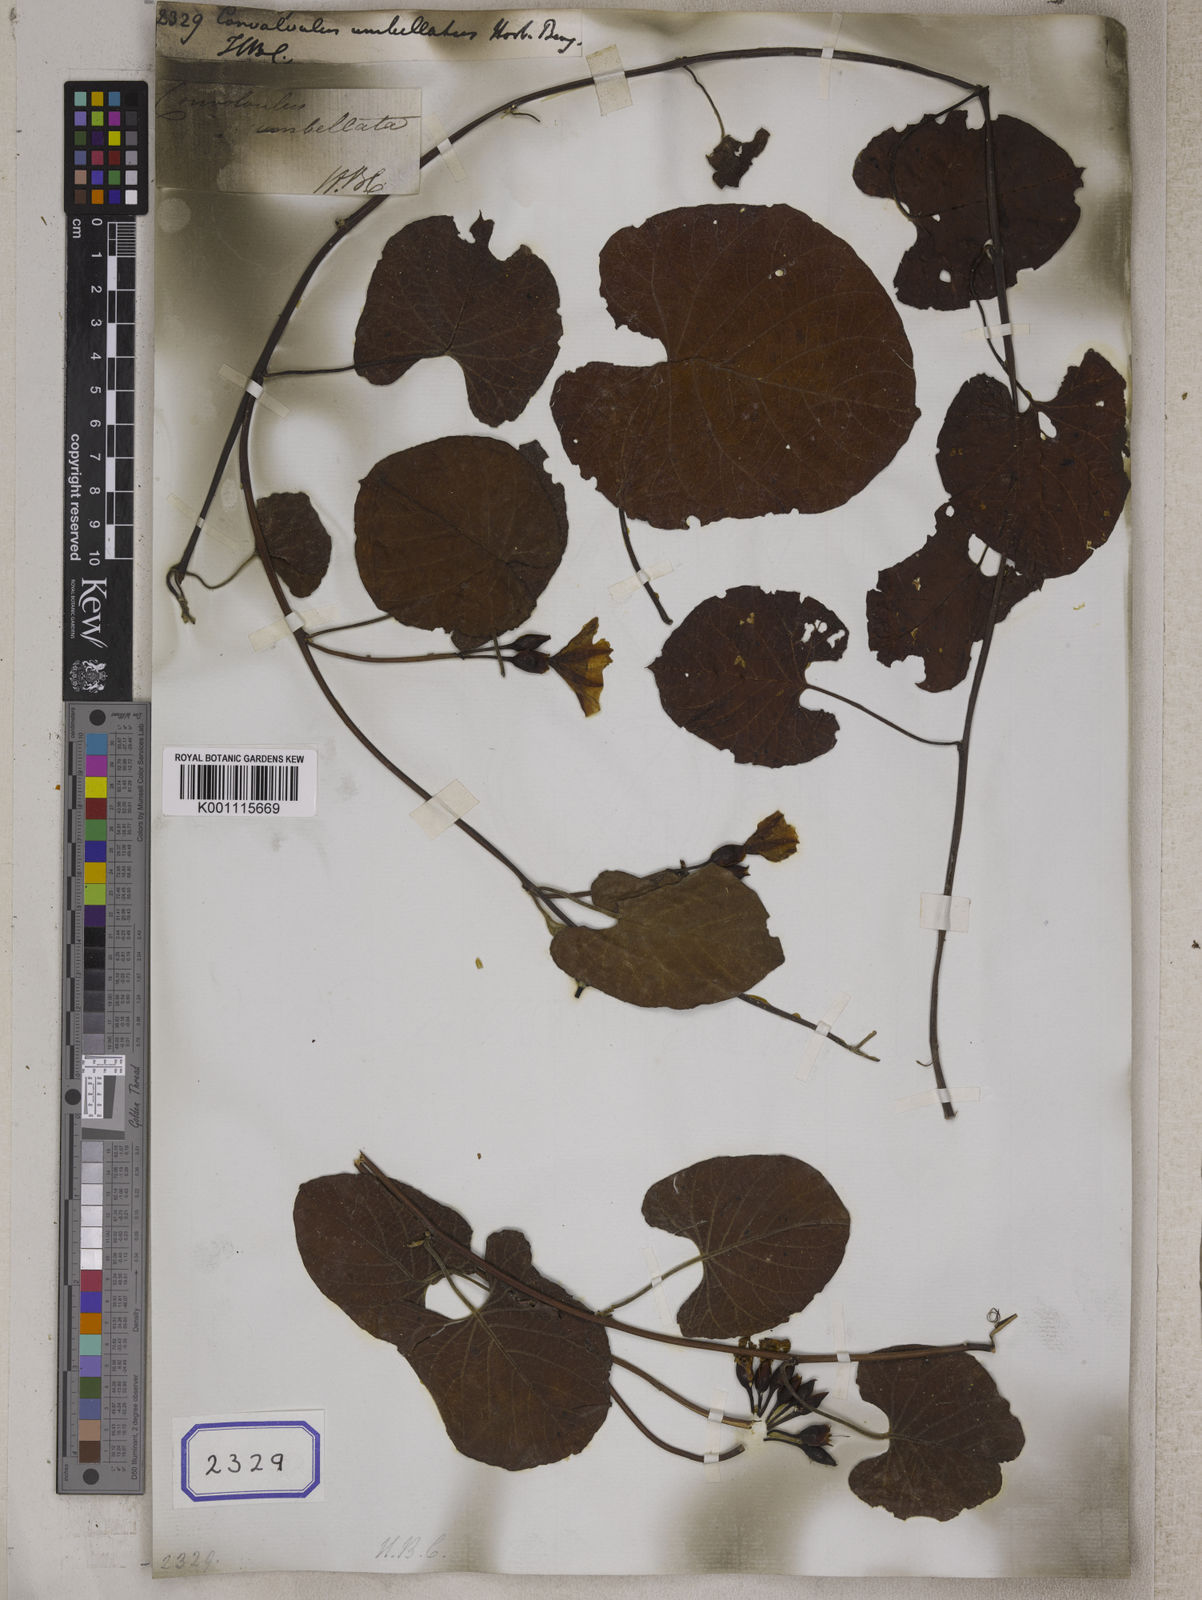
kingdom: Plantae
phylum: Tracheophyta
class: Magnoliopsida
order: Solanales
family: Convolvulaceae
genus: Convolvulus
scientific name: Convolvulus
